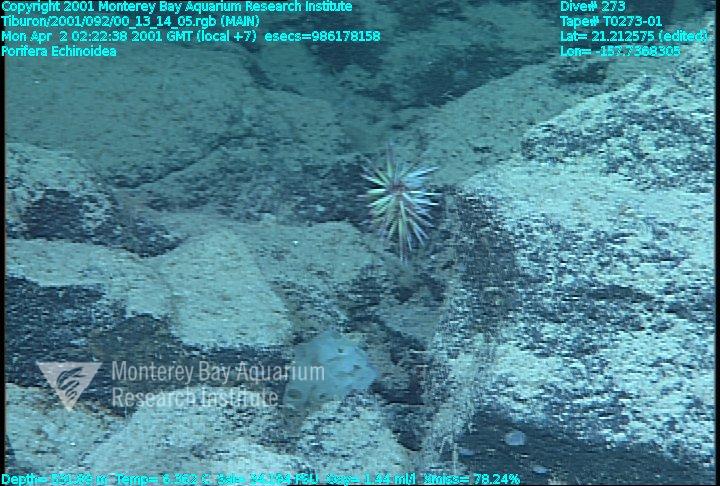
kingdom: Animalia
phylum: Porifera
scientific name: Porifera
